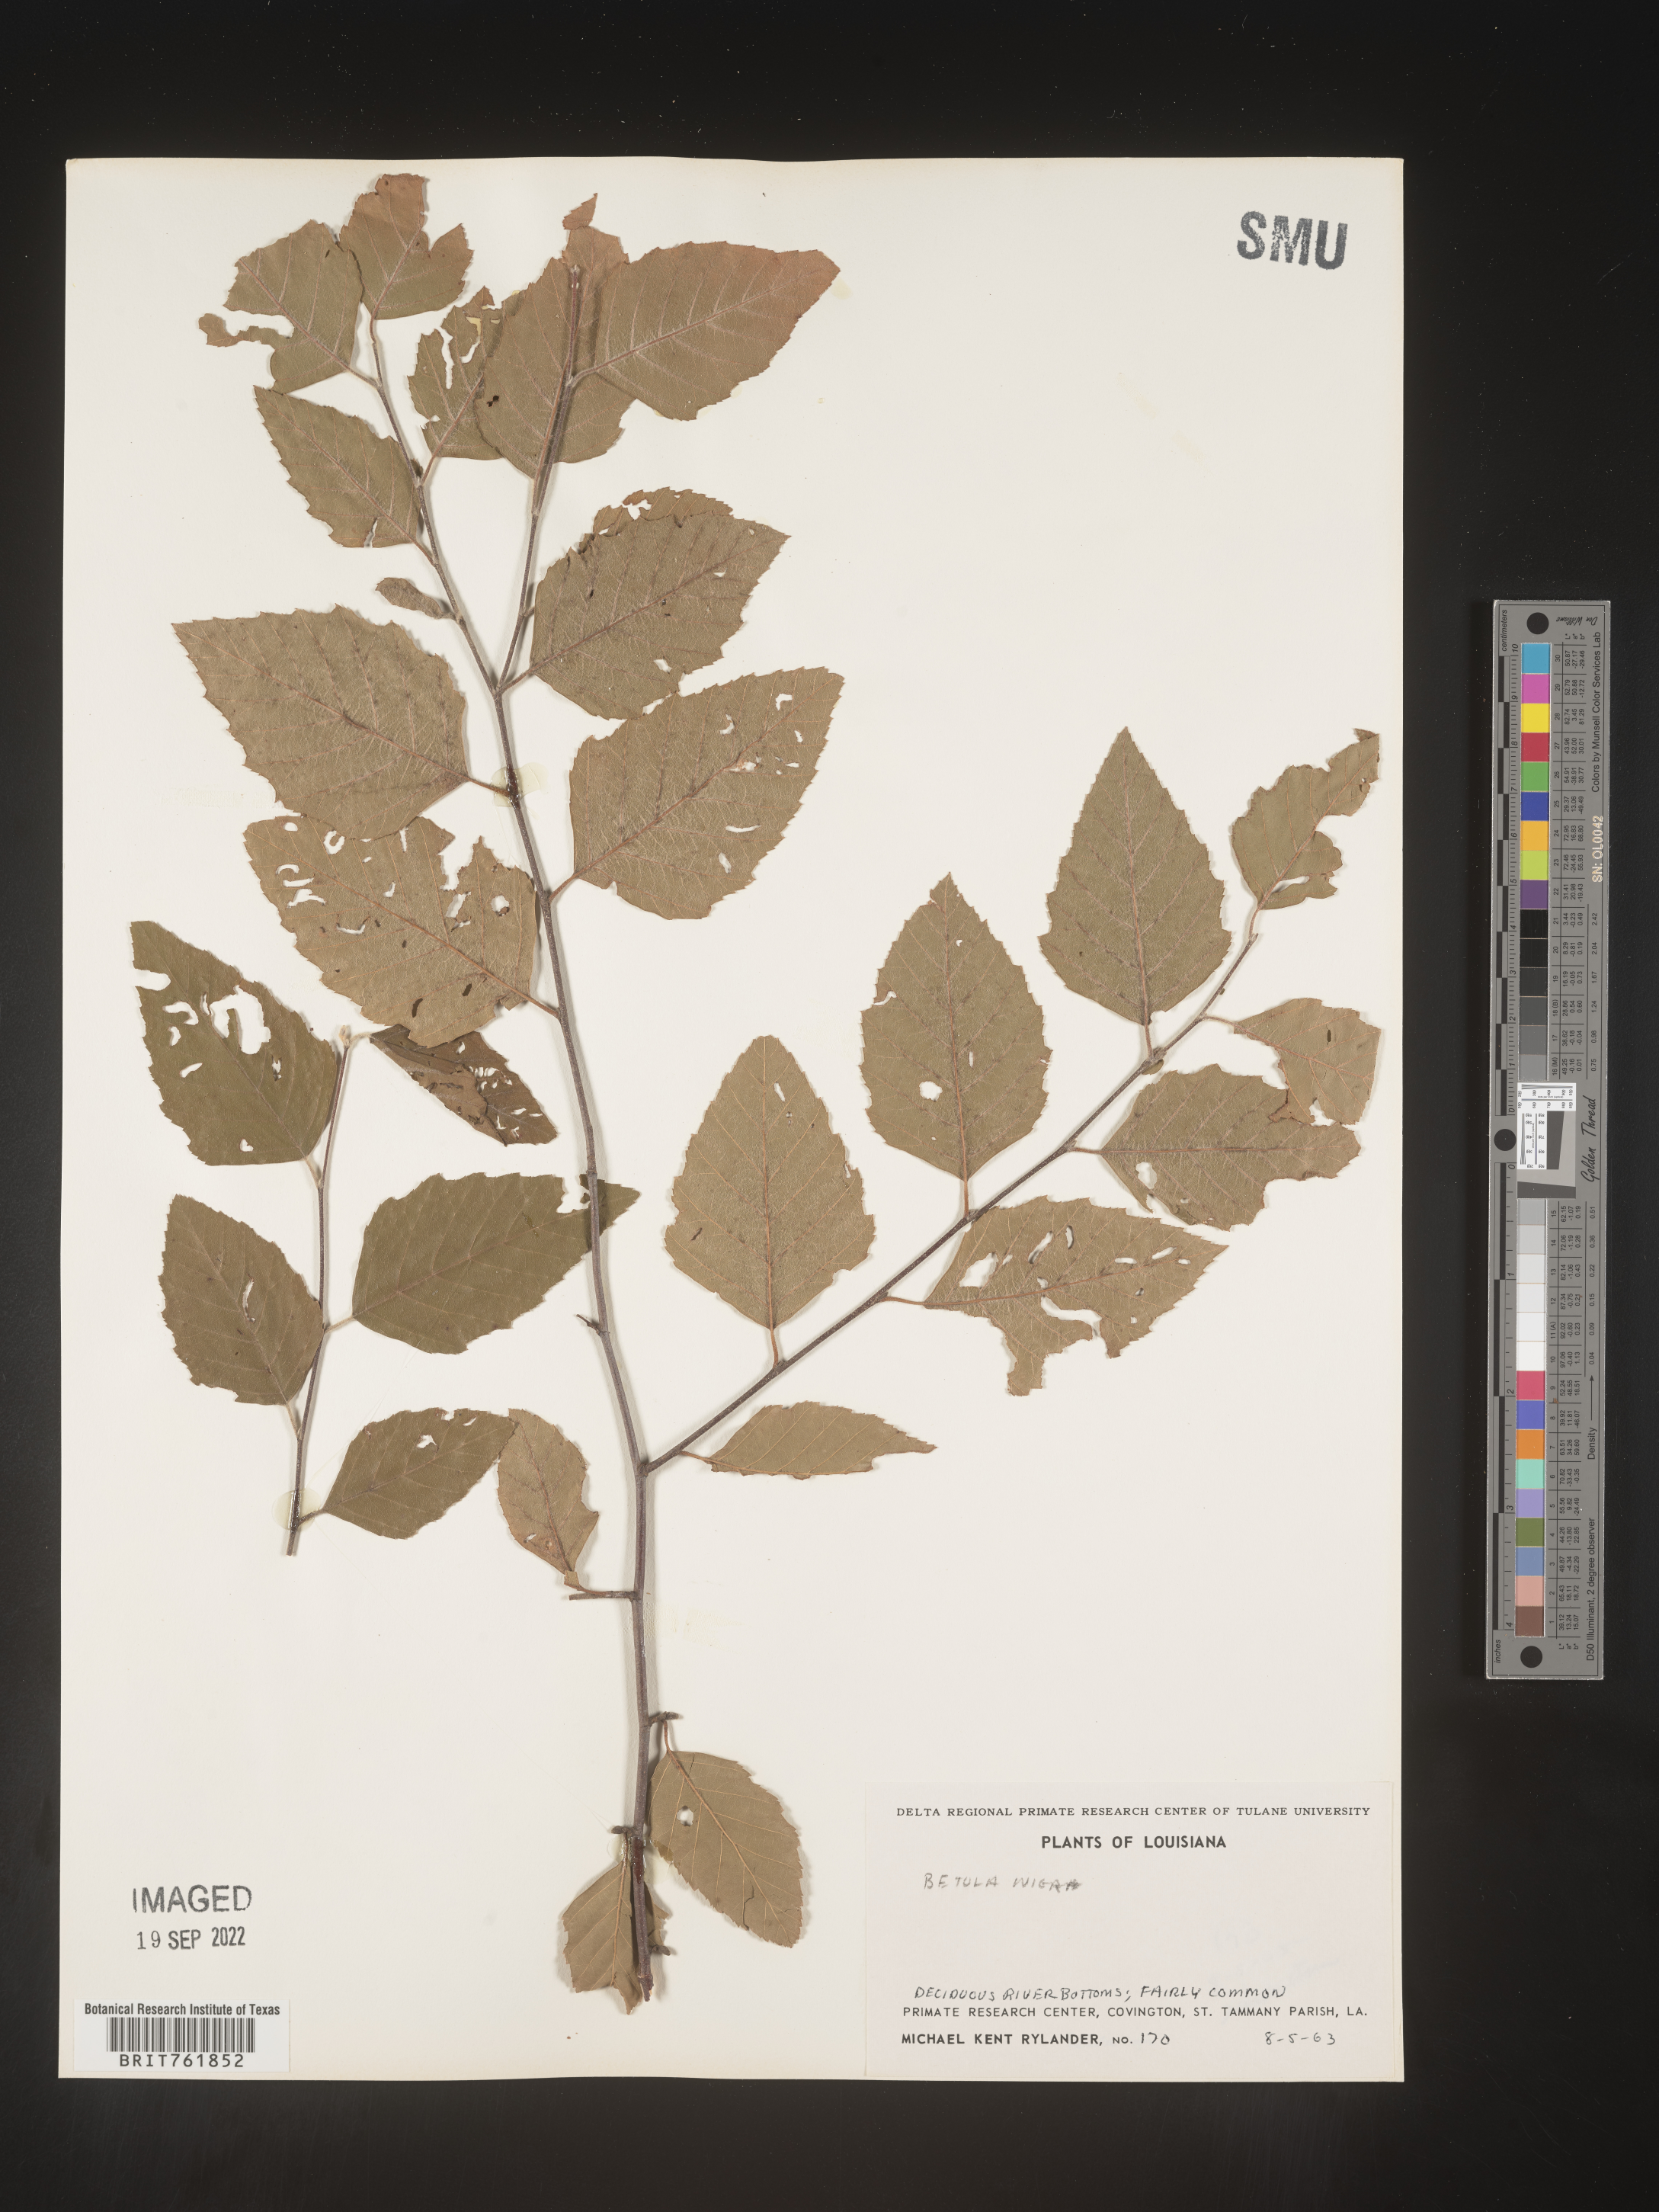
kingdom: Plantae
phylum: Tracheophyta
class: Magnoliopsida
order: Fagales
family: Betulaceae
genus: Betula
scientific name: Betula nigra
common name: Black birch
